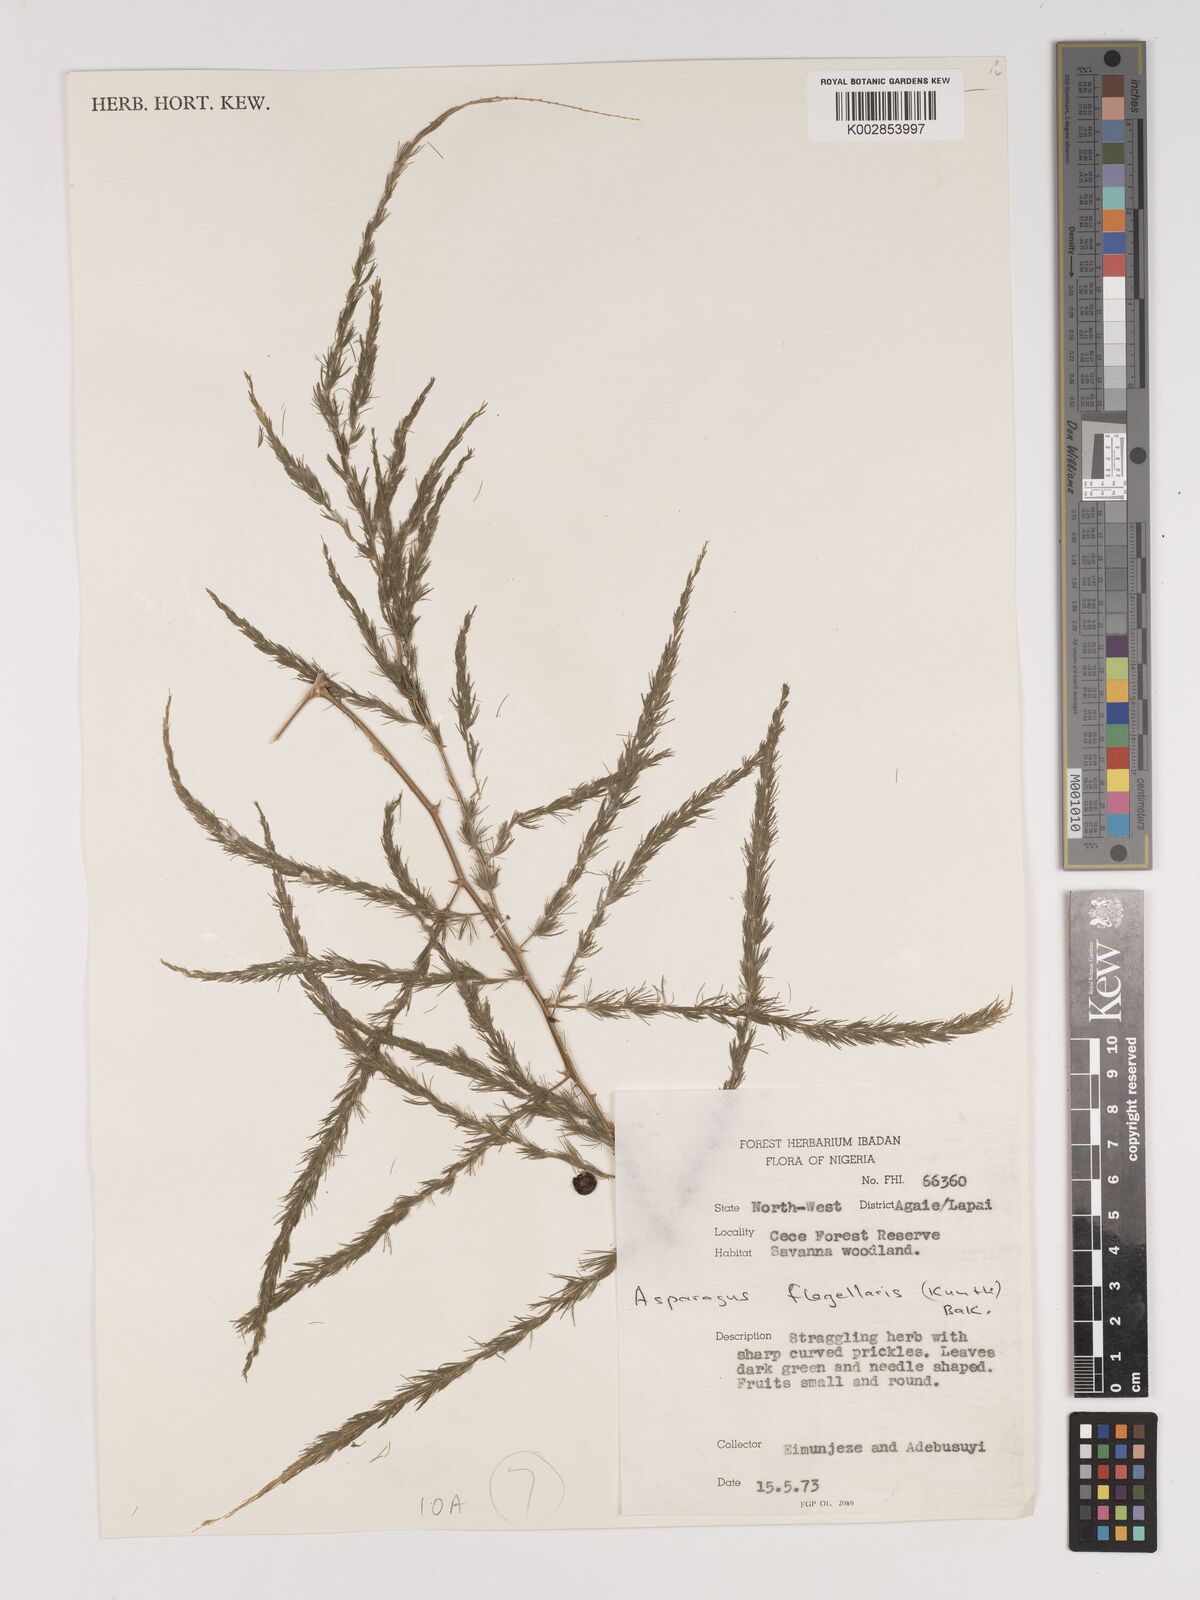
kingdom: Plantae
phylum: Tracheophyta
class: Liliopsida
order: Asparagales
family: Asparagaceae
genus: Asparagus
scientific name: Asparagus flagellaris
